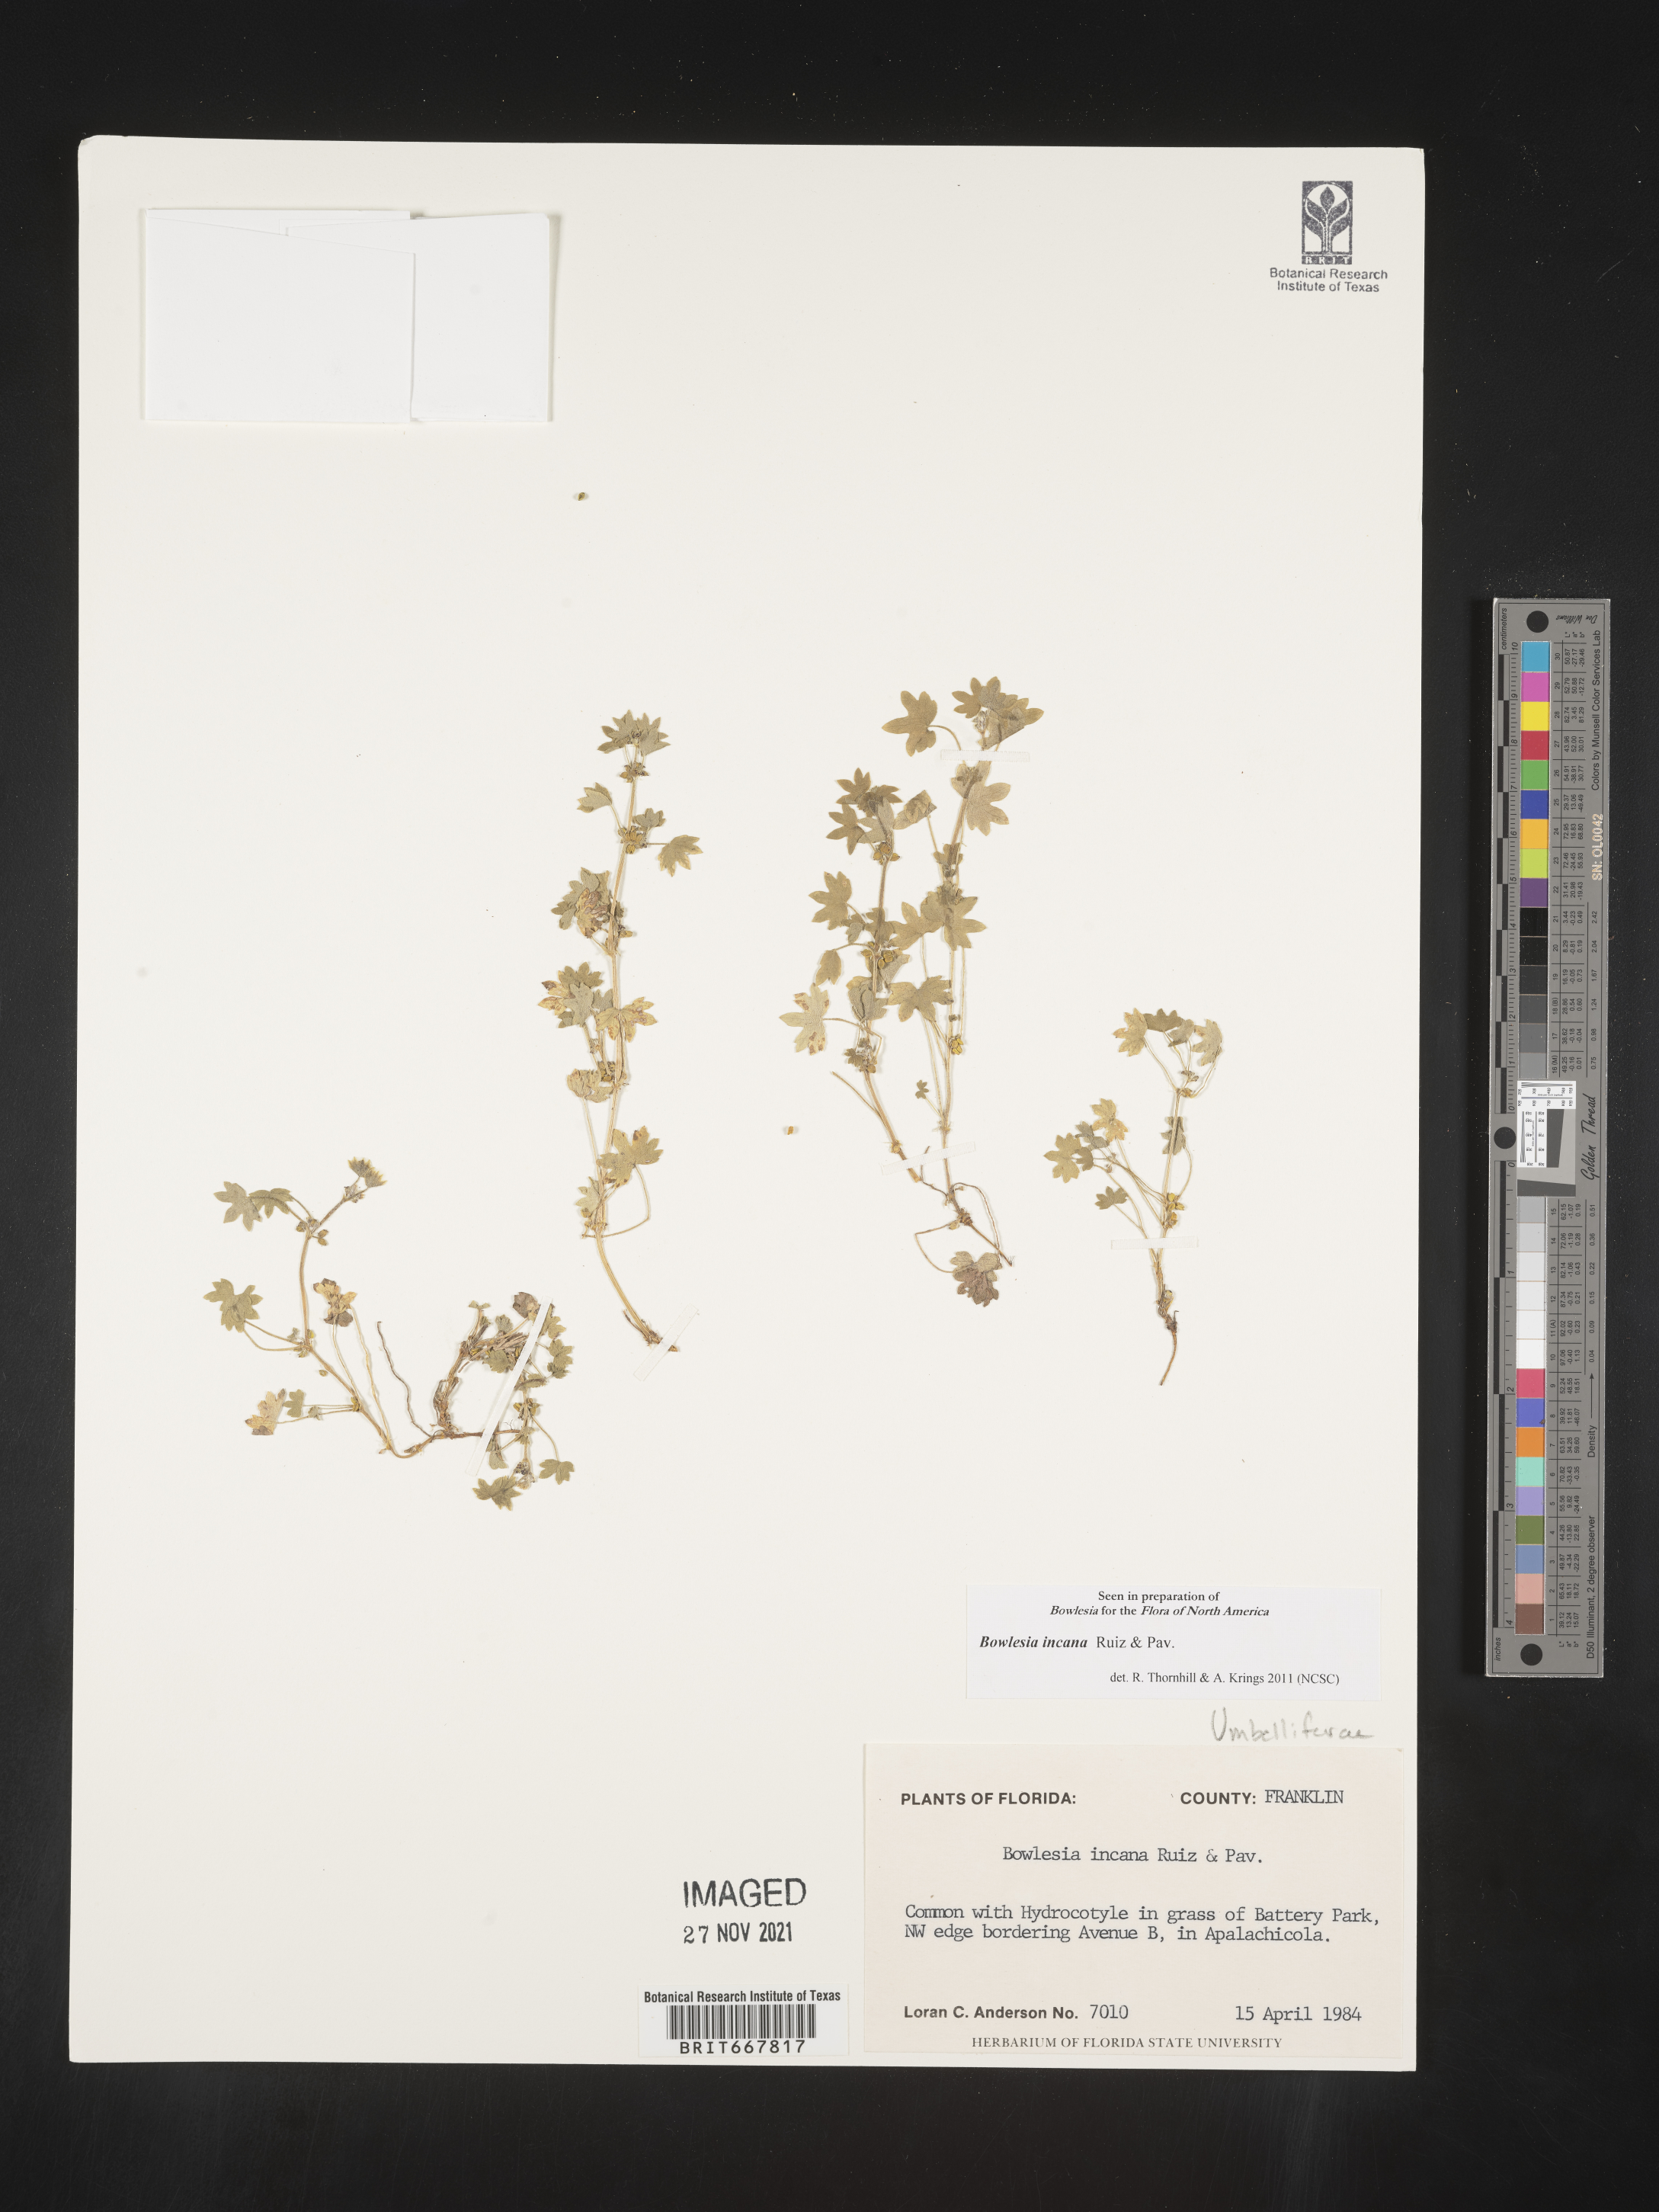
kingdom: Plantae
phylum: Tracheophyta
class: Magnoliopsida
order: Apiales
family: Apiaceae
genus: Bowlesia
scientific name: Bowlesia
